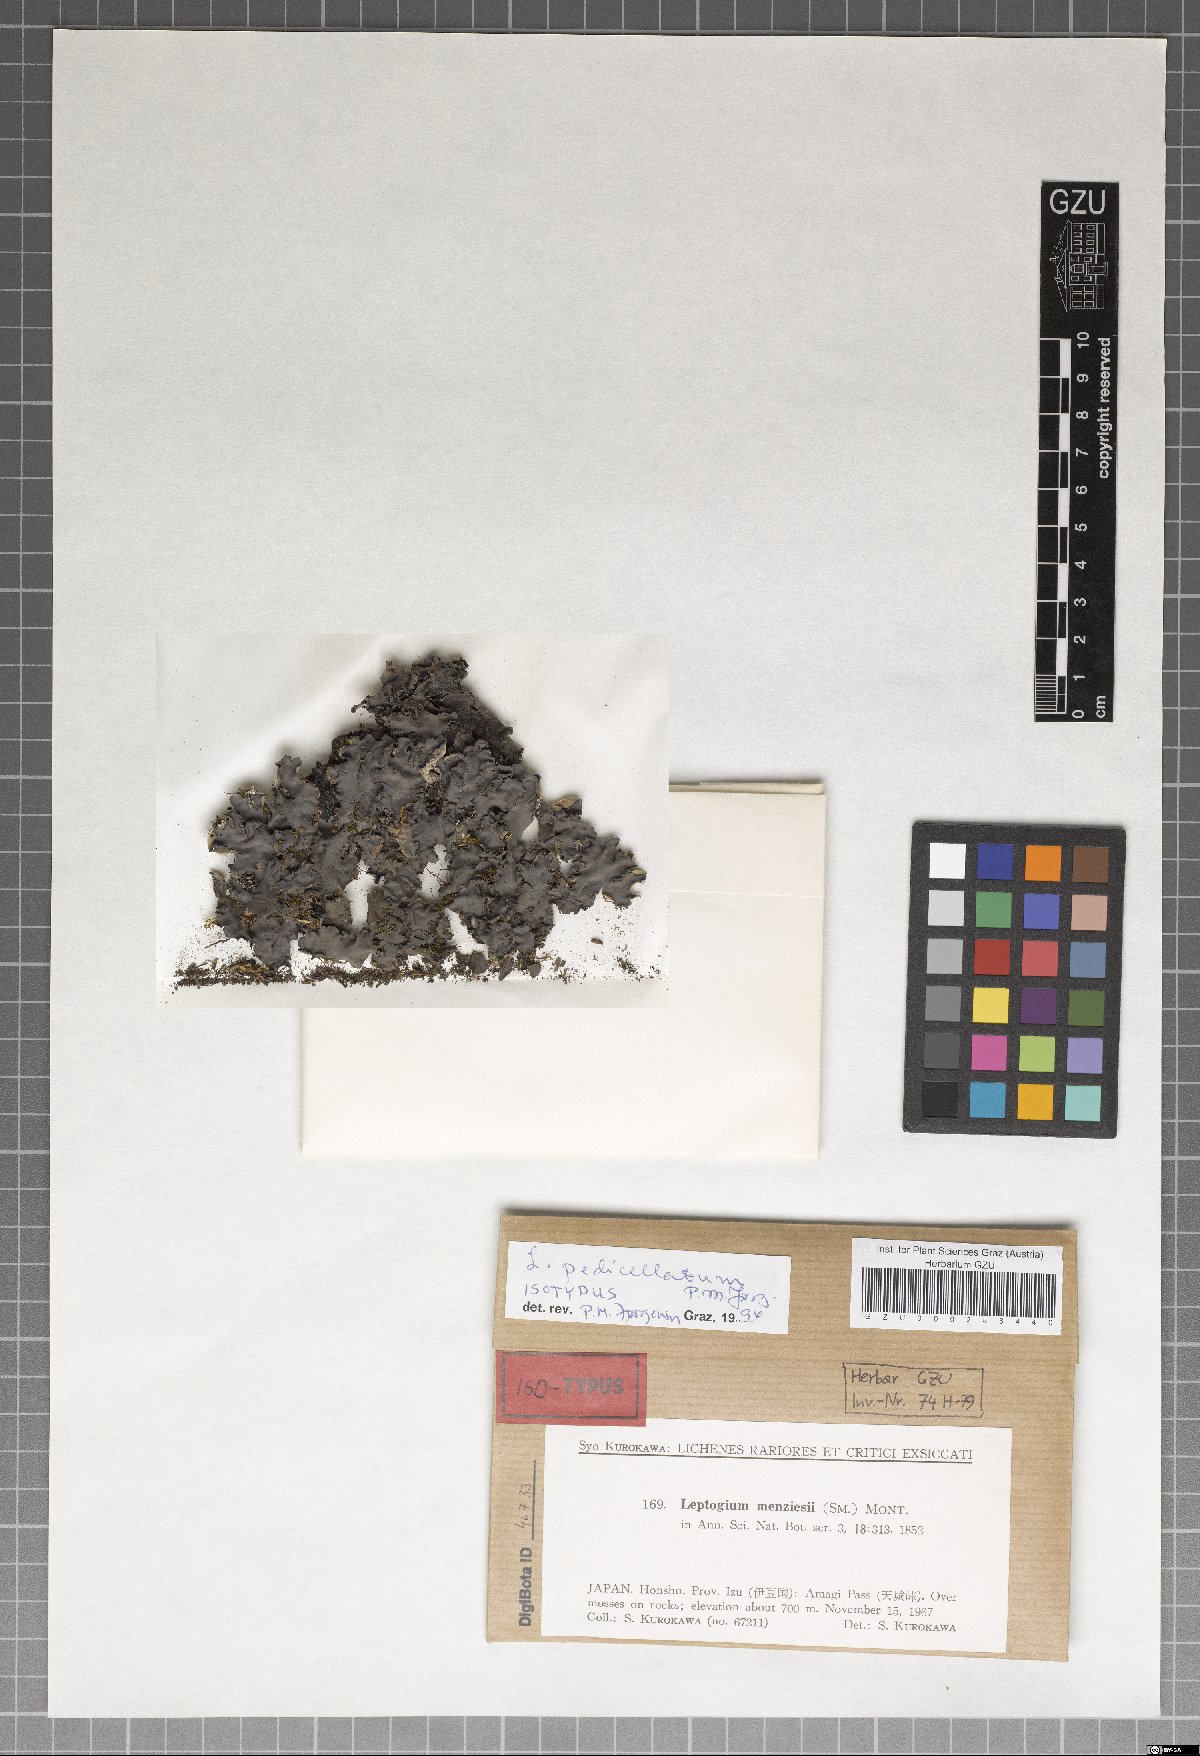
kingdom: Fungi
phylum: Ascomycota
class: Lecanoromycetes
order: Peltigerales
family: Collemataceae
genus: Leptogium
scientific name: Leptogium pedicellatum
